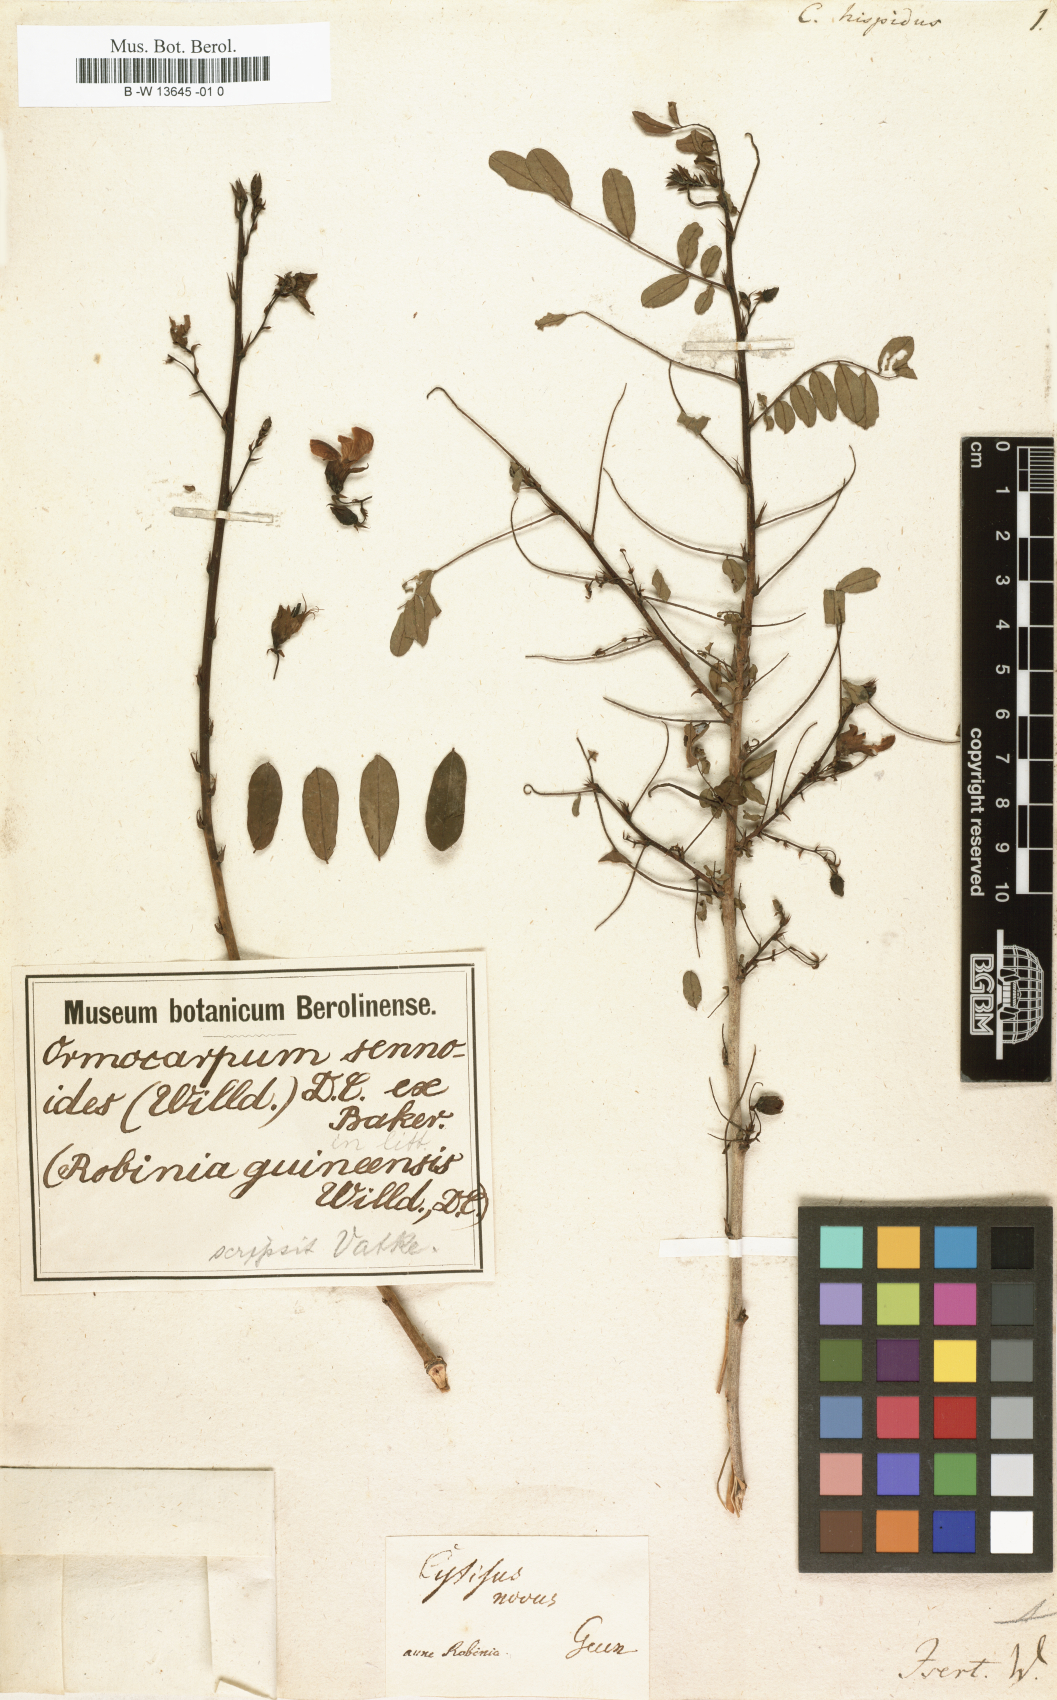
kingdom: Plantae
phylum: Tracheophyta
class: Magnoliopsida
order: Fabales
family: Fabaceae
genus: Ormocarpum
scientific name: Ormocarpum sennoides
